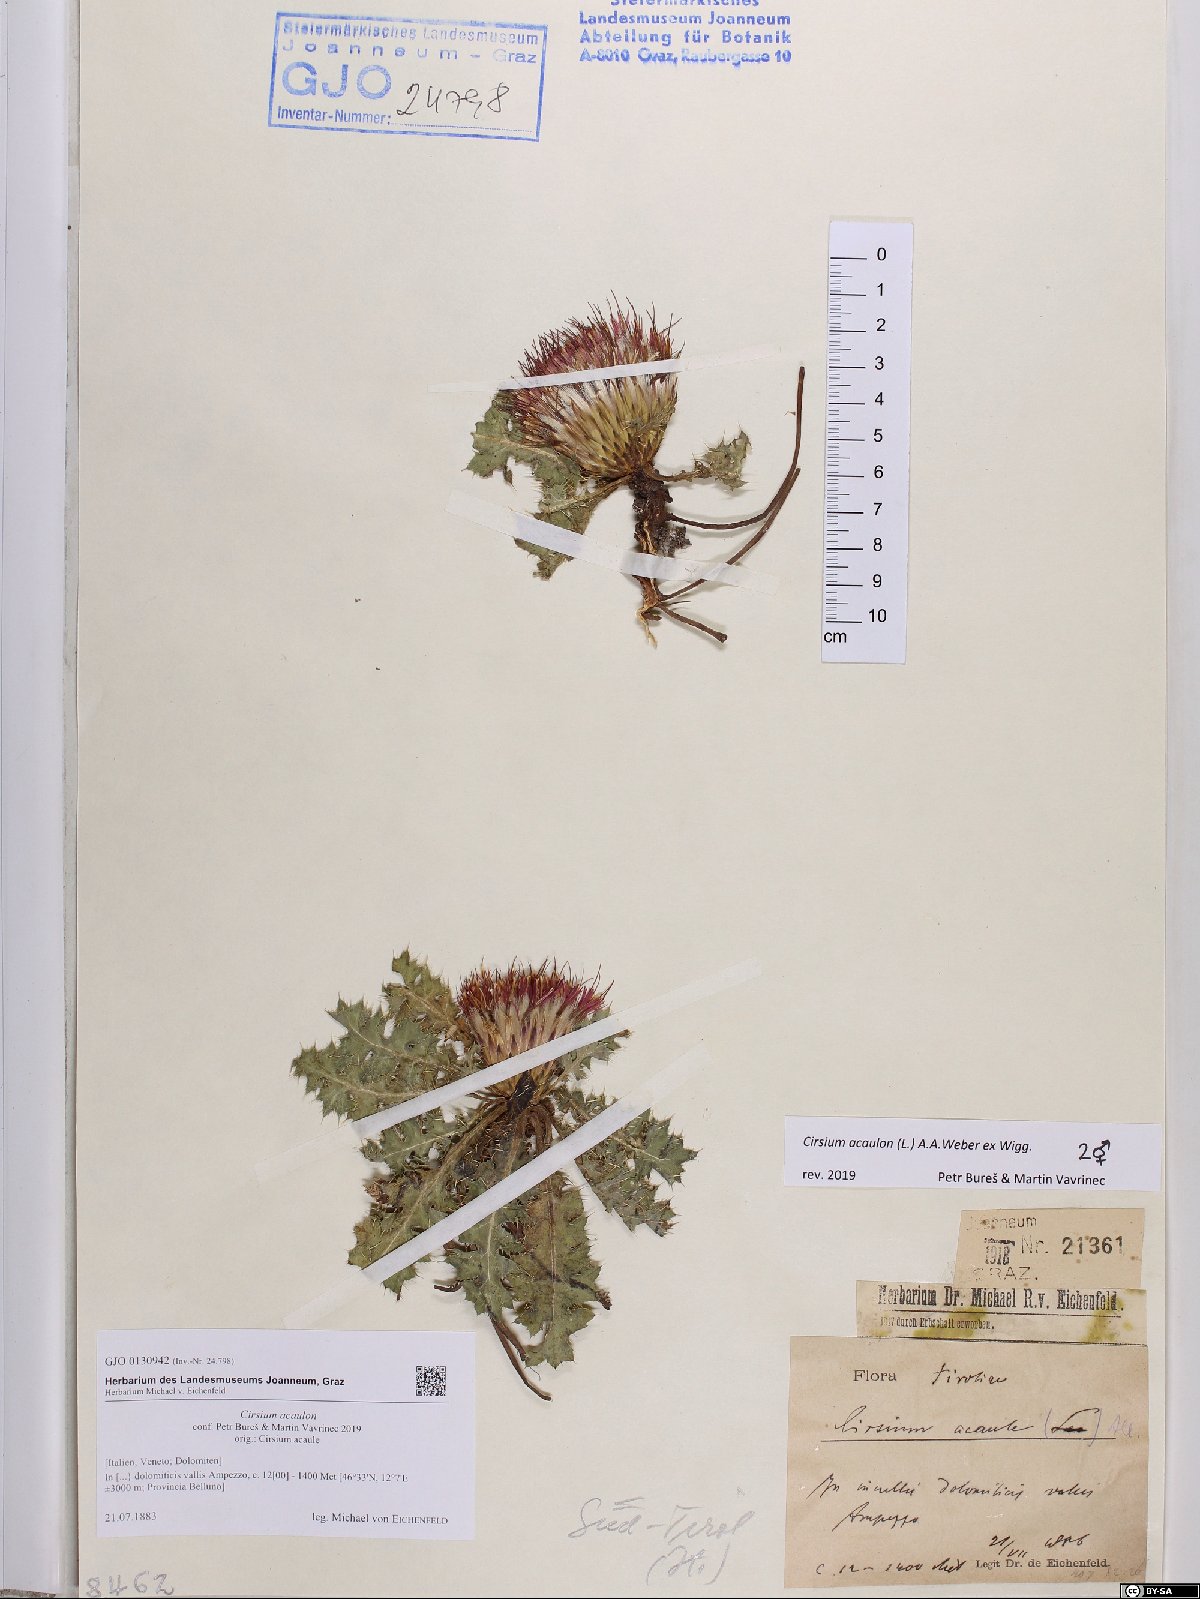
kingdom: Plantae
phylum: Tracheophyta
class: Magnoliopsida
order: Asterales
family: Asteraceae
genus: Cirsium
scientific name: Cirsium acaulon
